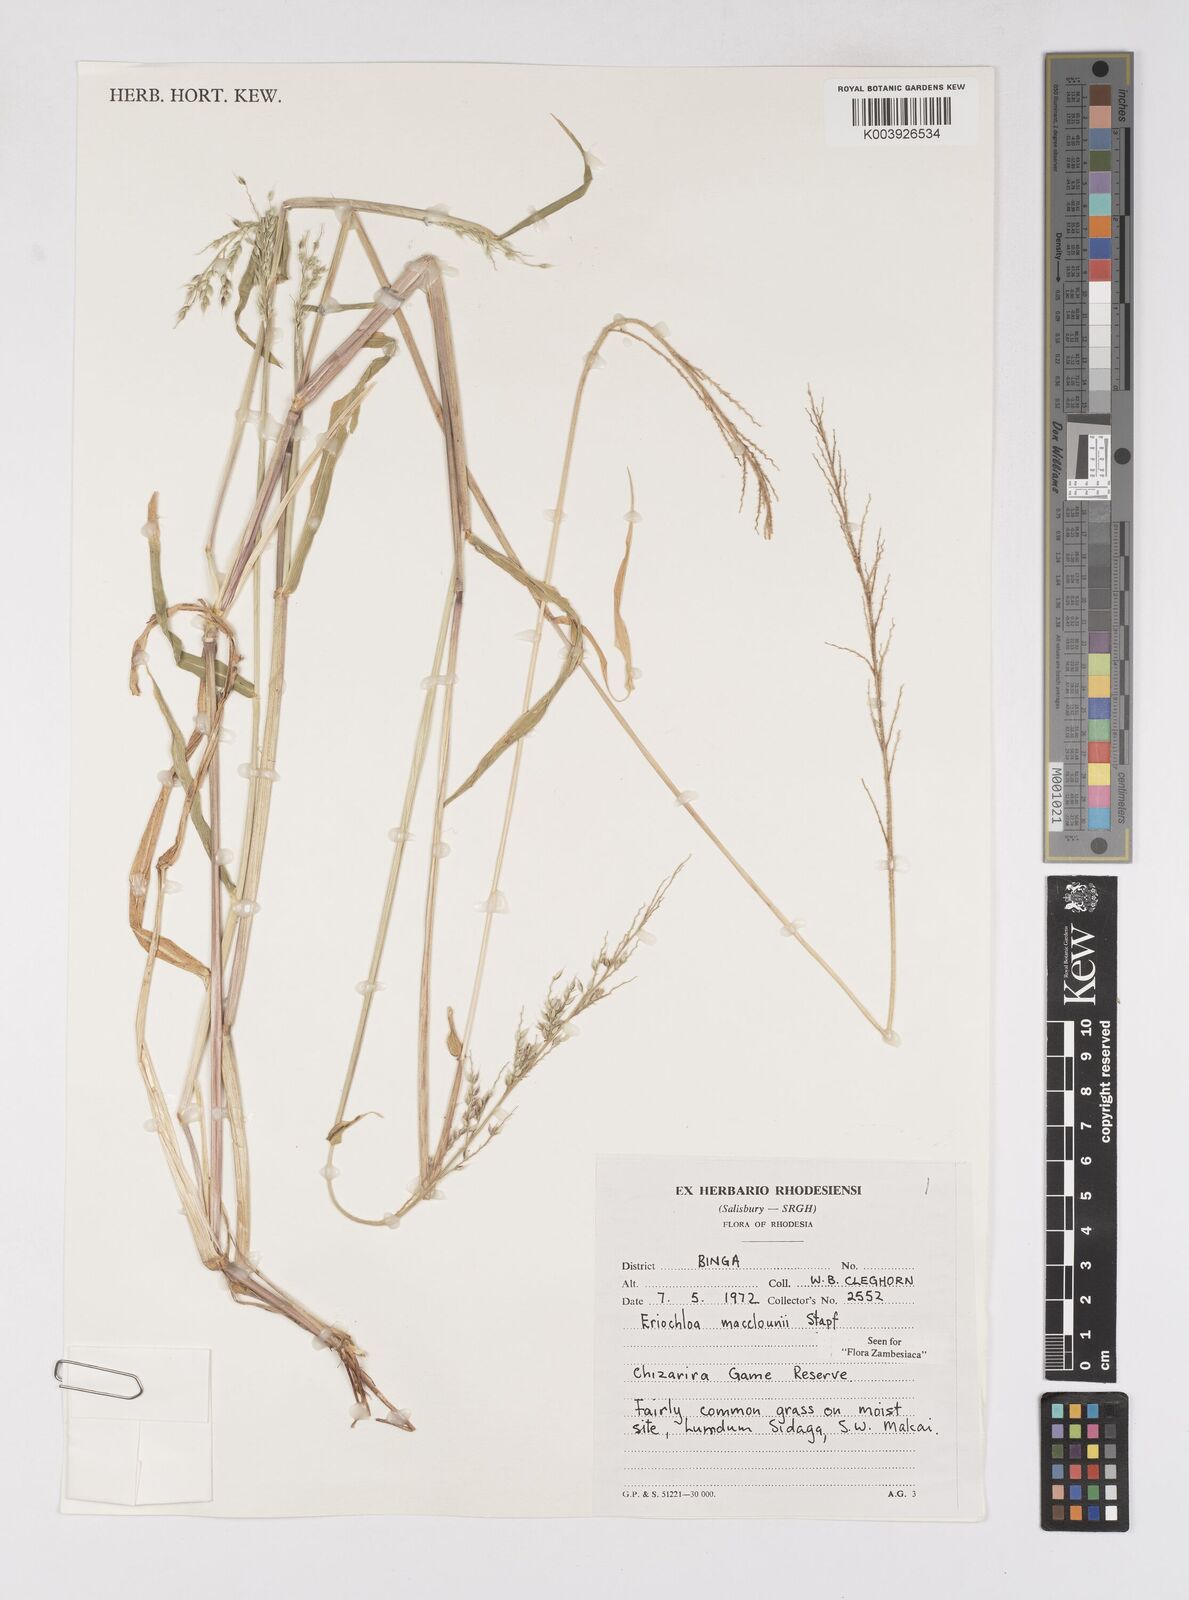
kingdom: Plantae
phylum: Tracheophyta
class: Liliopsida
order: Poales
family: Poaceae
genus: Eriochloa
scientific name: Eriochloa macclounii
